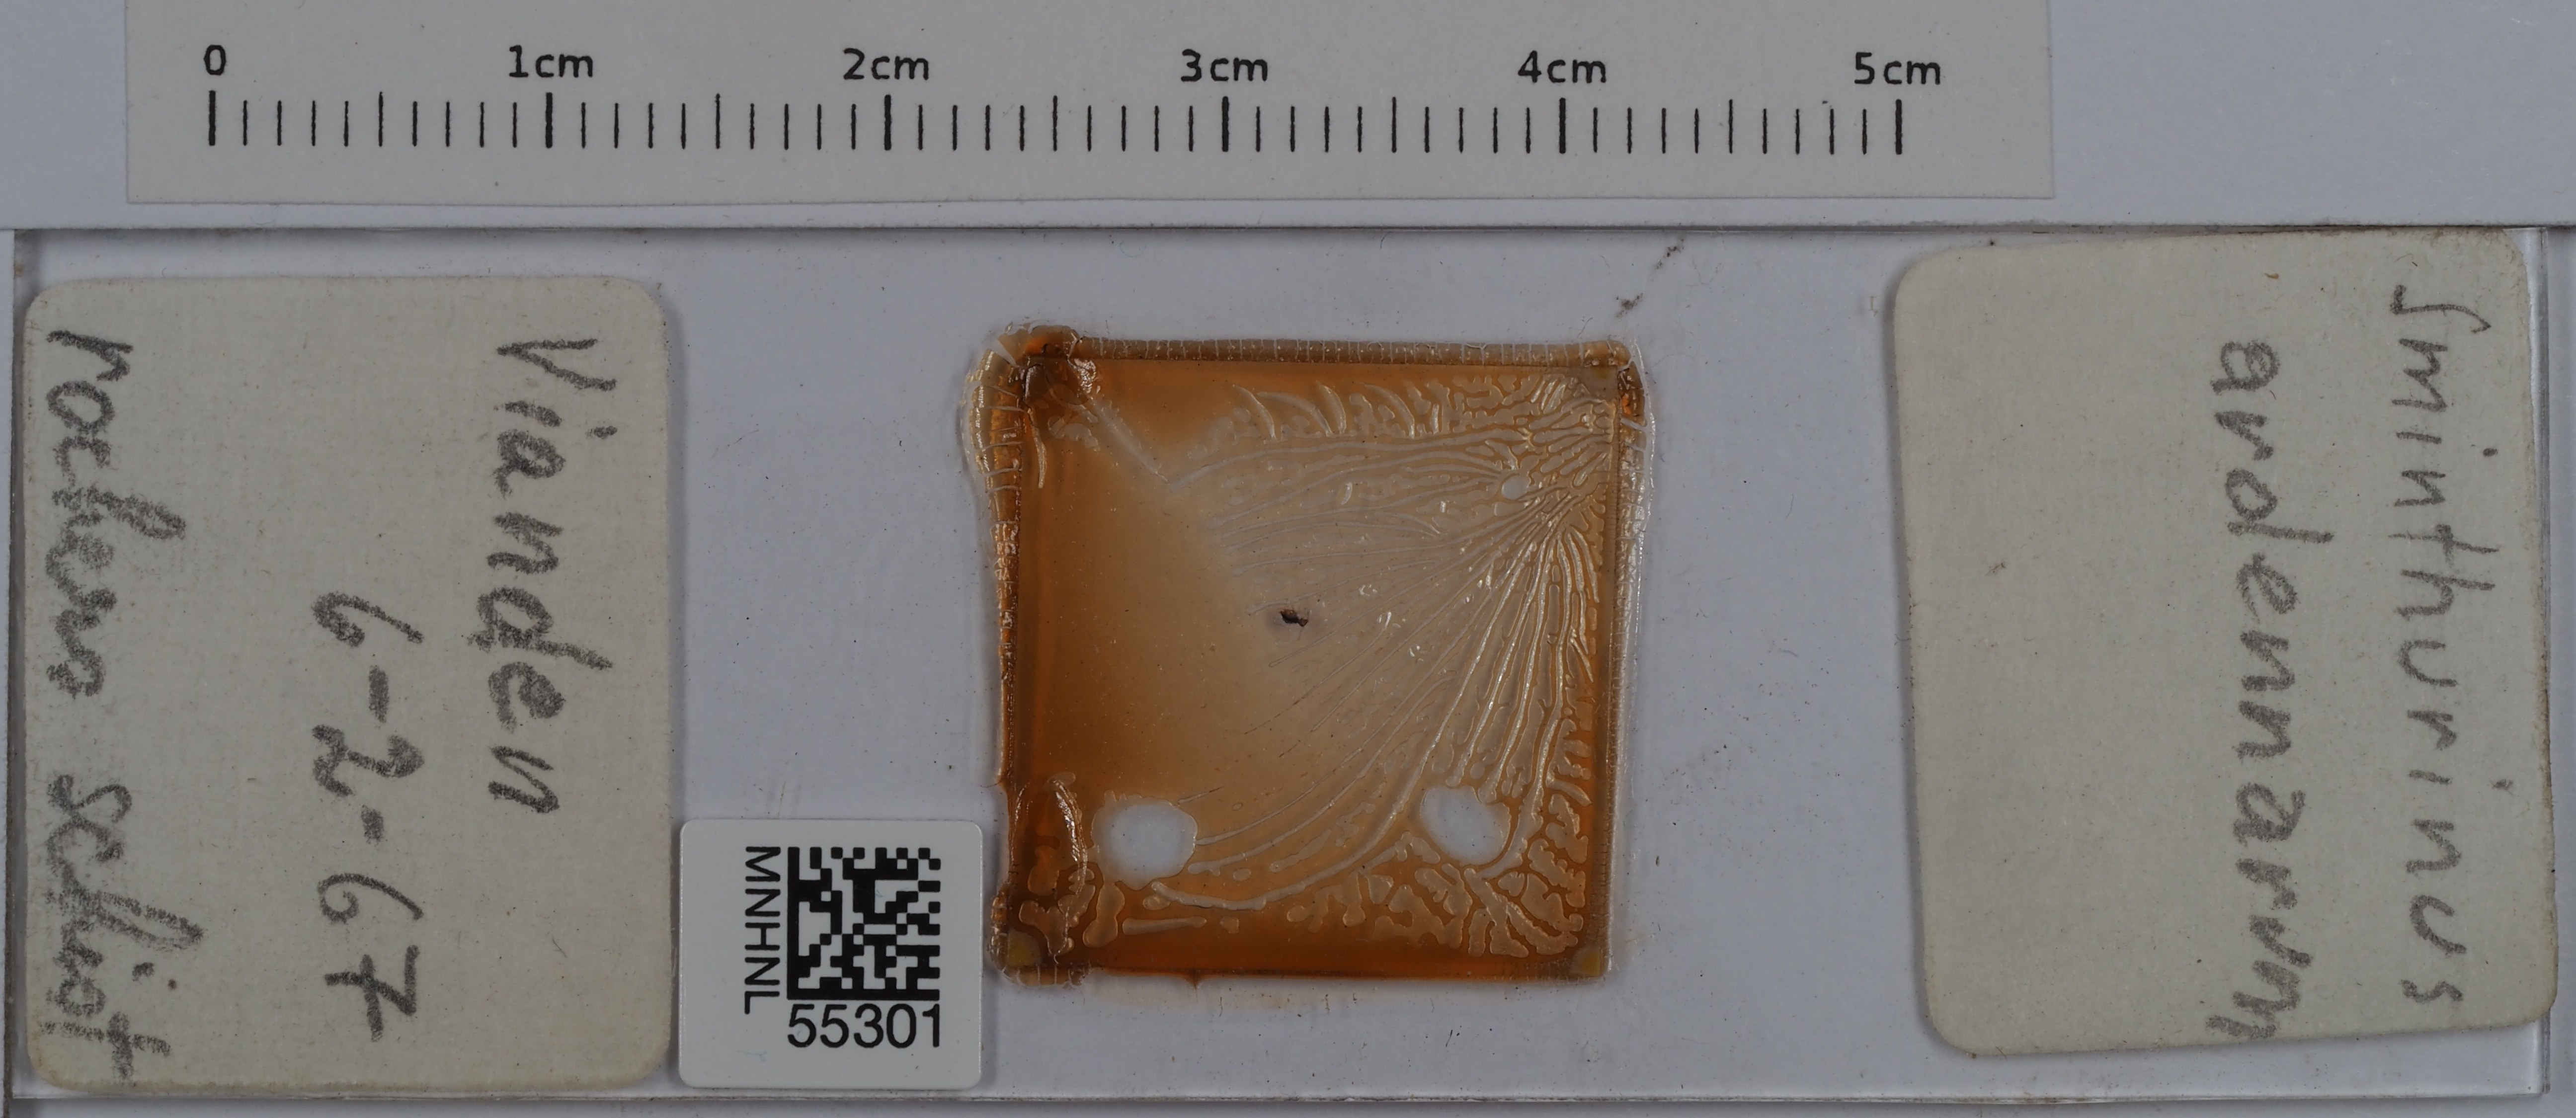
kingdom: Animalia
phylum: Arthropoda
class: Collembola
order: Symphypleona
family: Katiannidae
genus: Sminthurinus
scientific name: Sminthurinus
